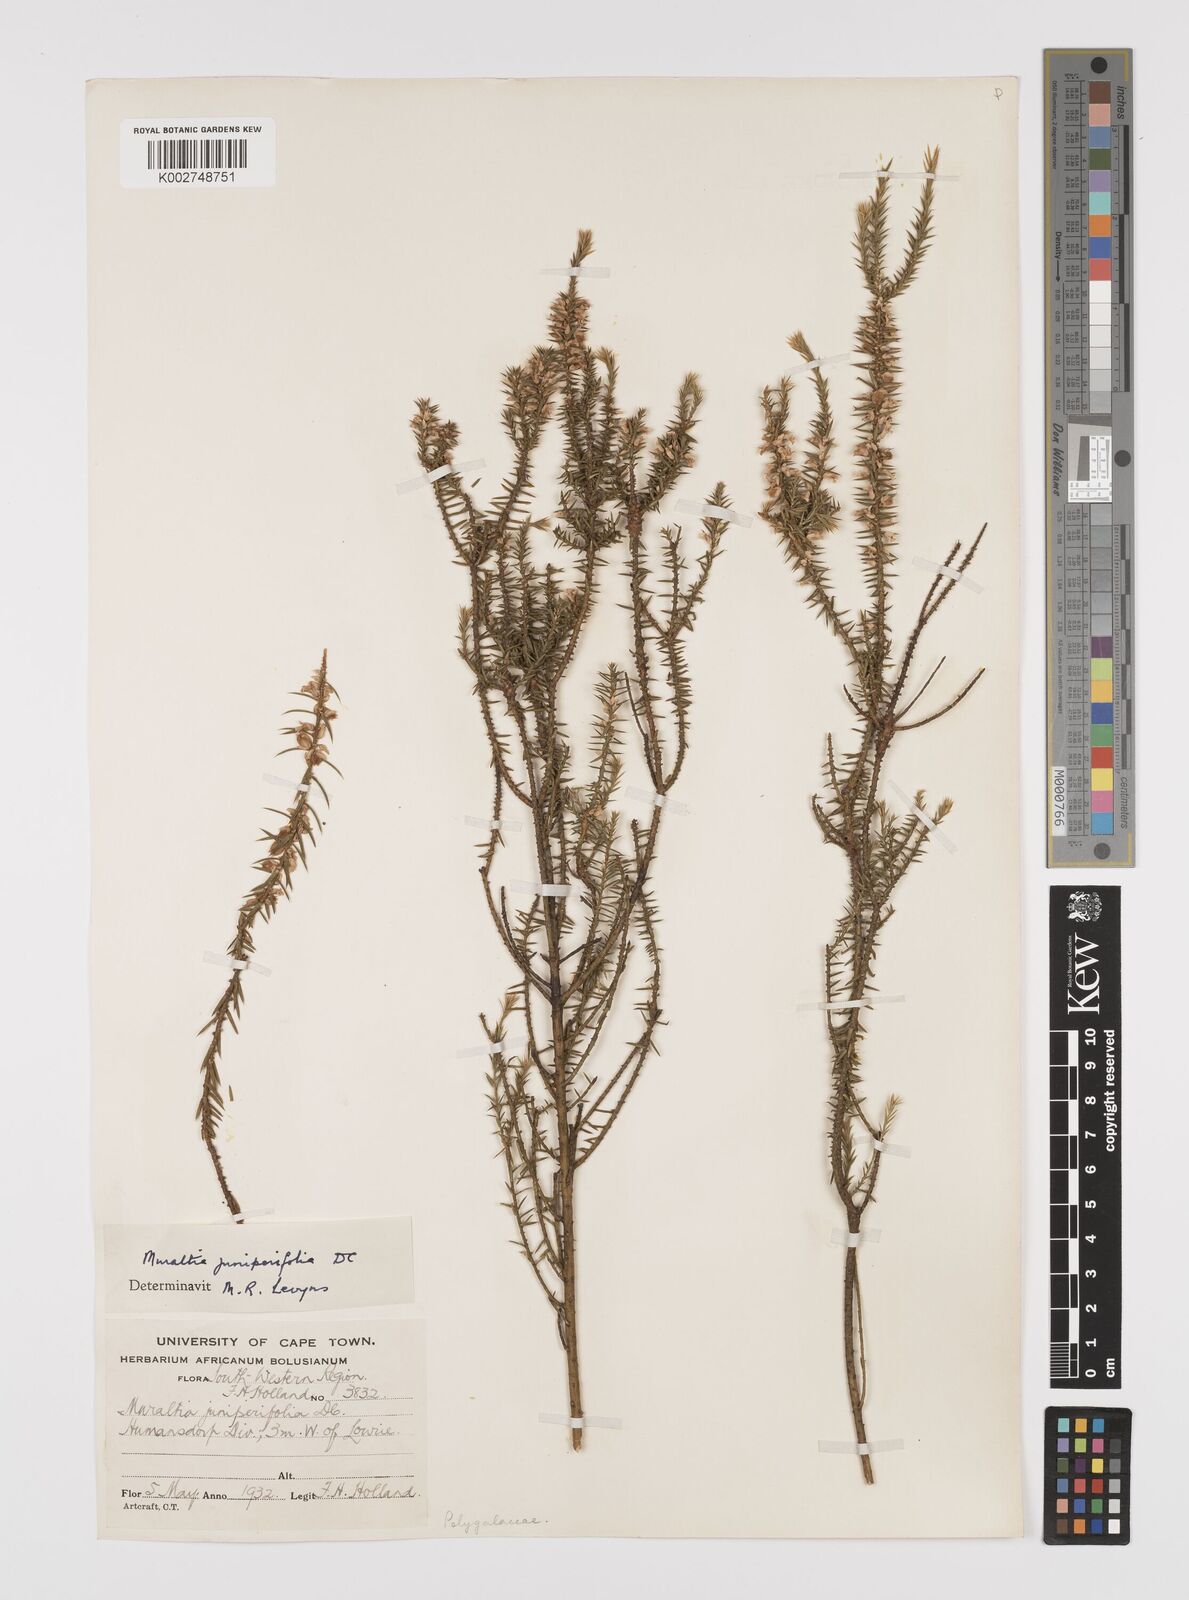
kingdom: Plantae
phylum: Tracheophyta
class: Magnoliopsida
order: Fabales
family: Polygalaceae
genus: Muraltia
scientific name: Muraltia juniperifolia
